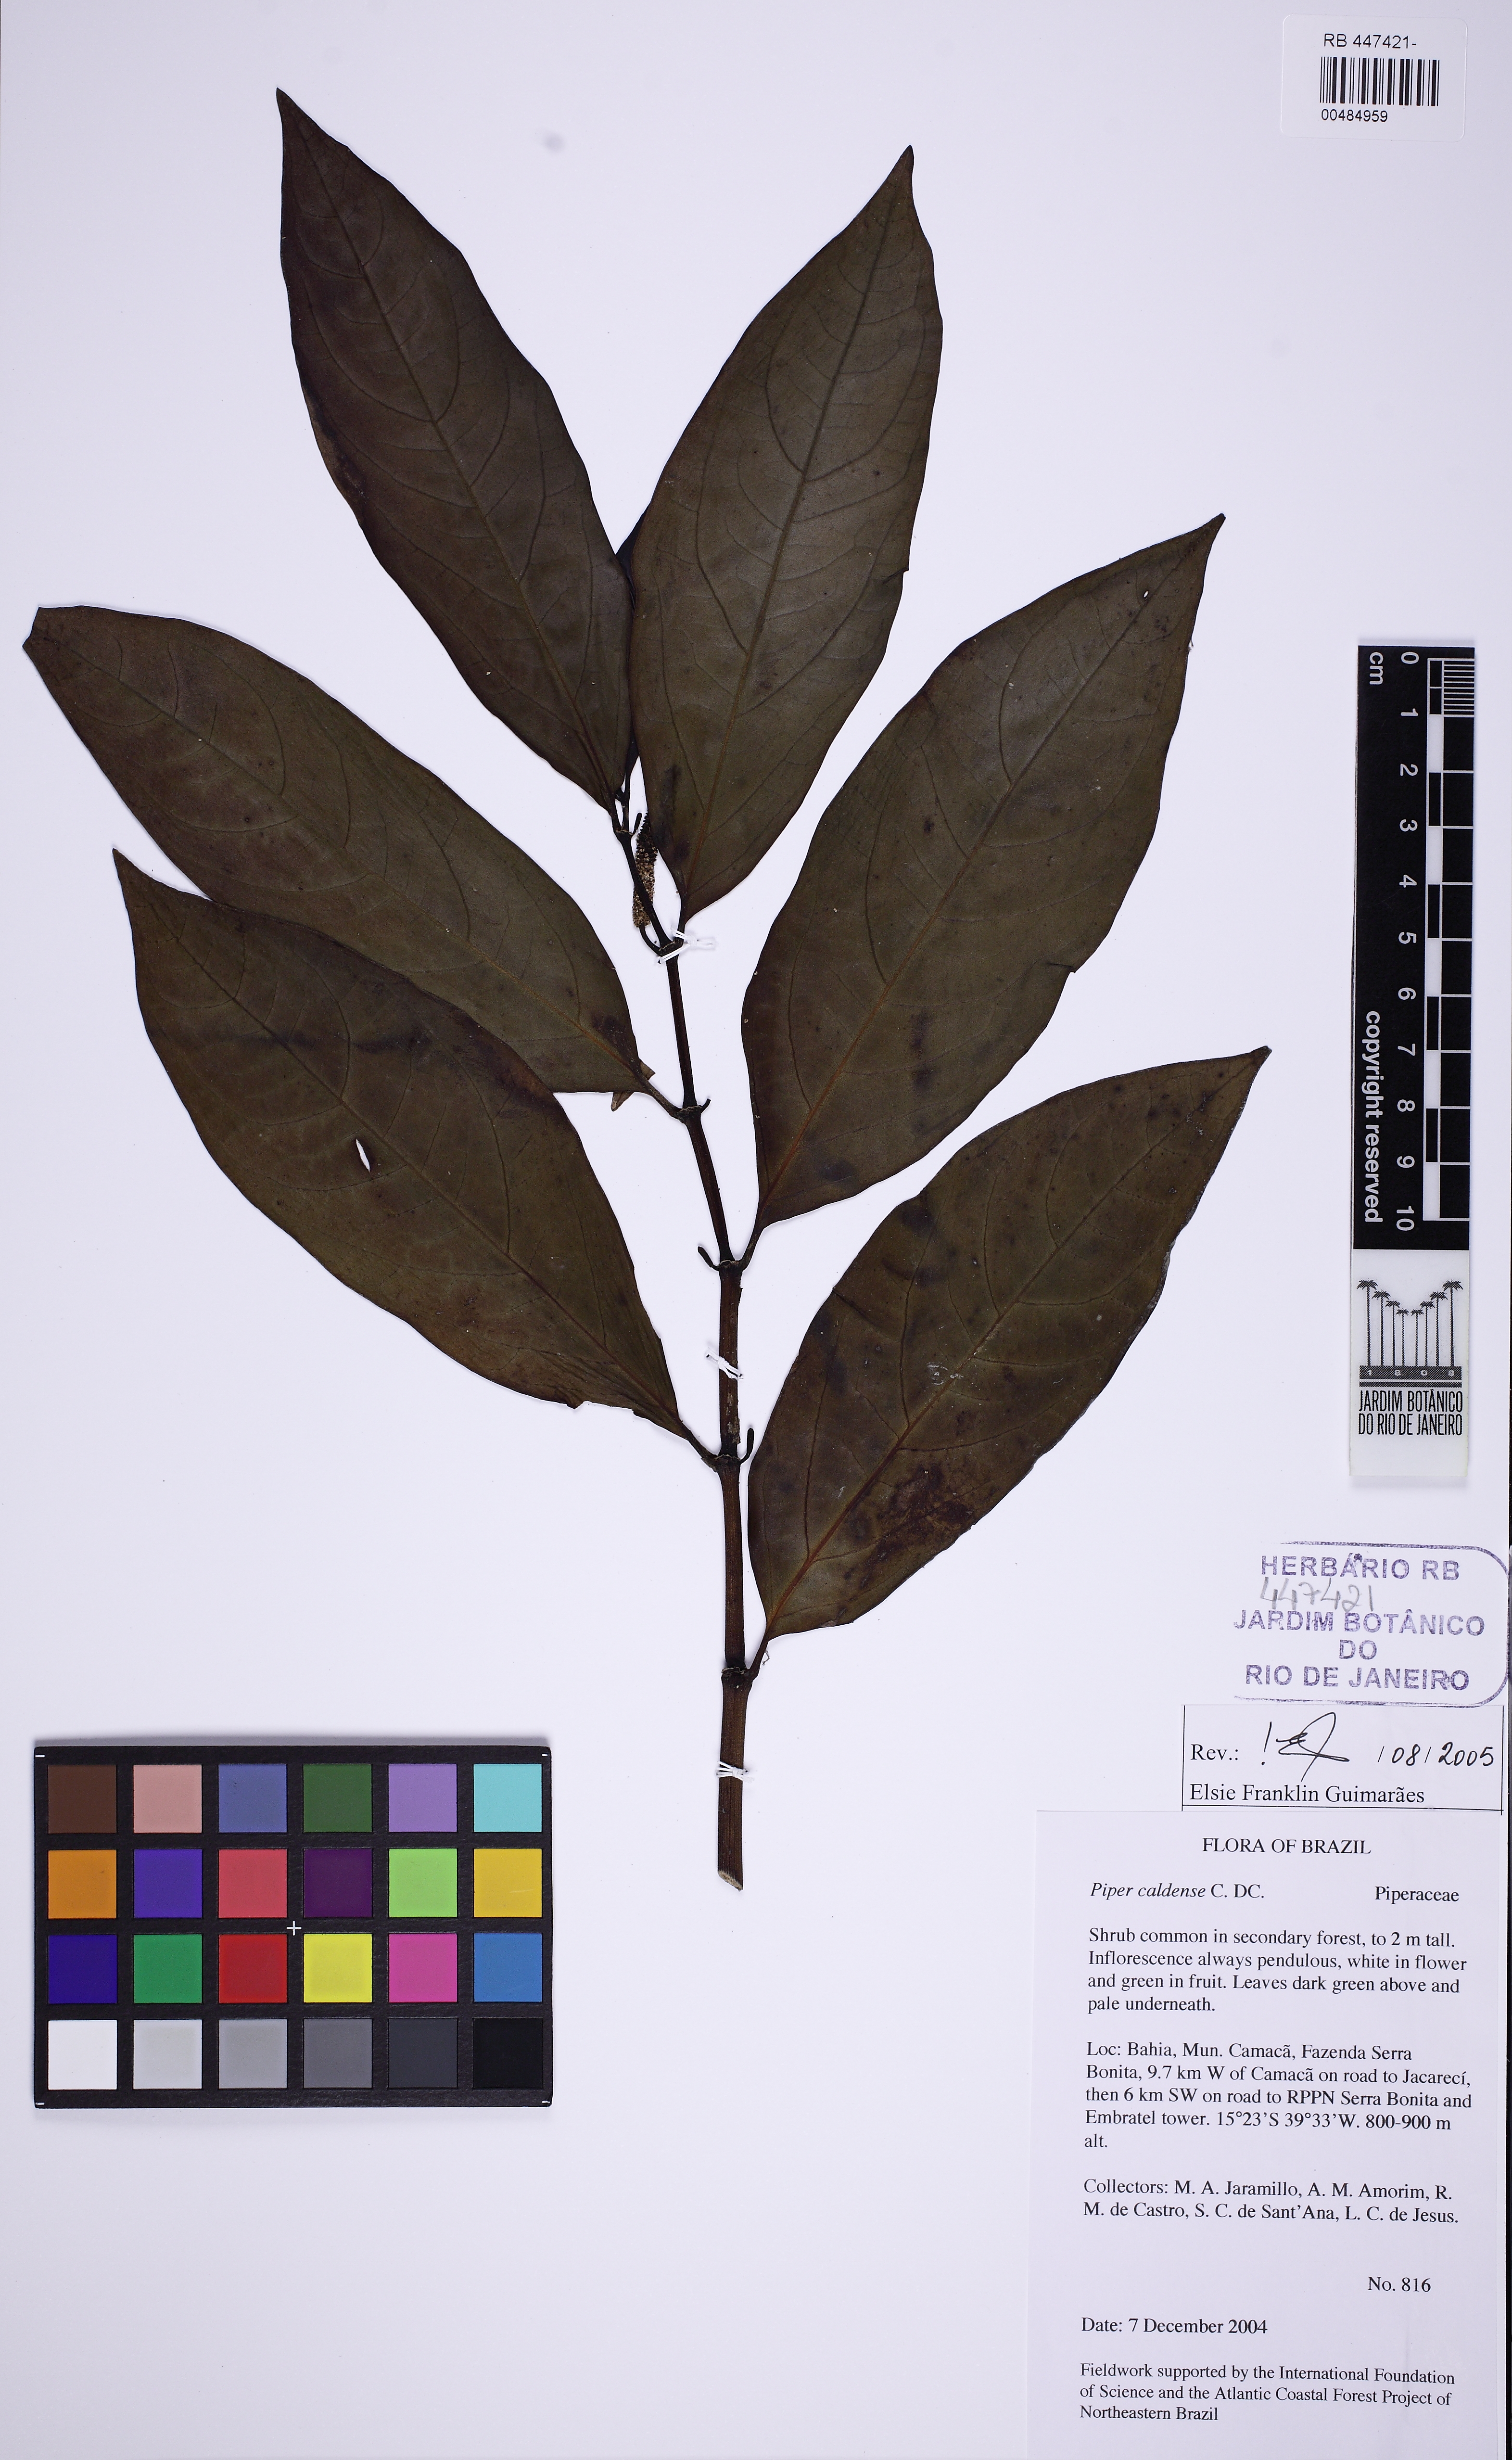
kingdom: Plantae
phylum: Tracheophyta
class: Magnoliopsida
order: Piperales
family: Piperaceae
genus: Piper
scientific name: Piper caldense
